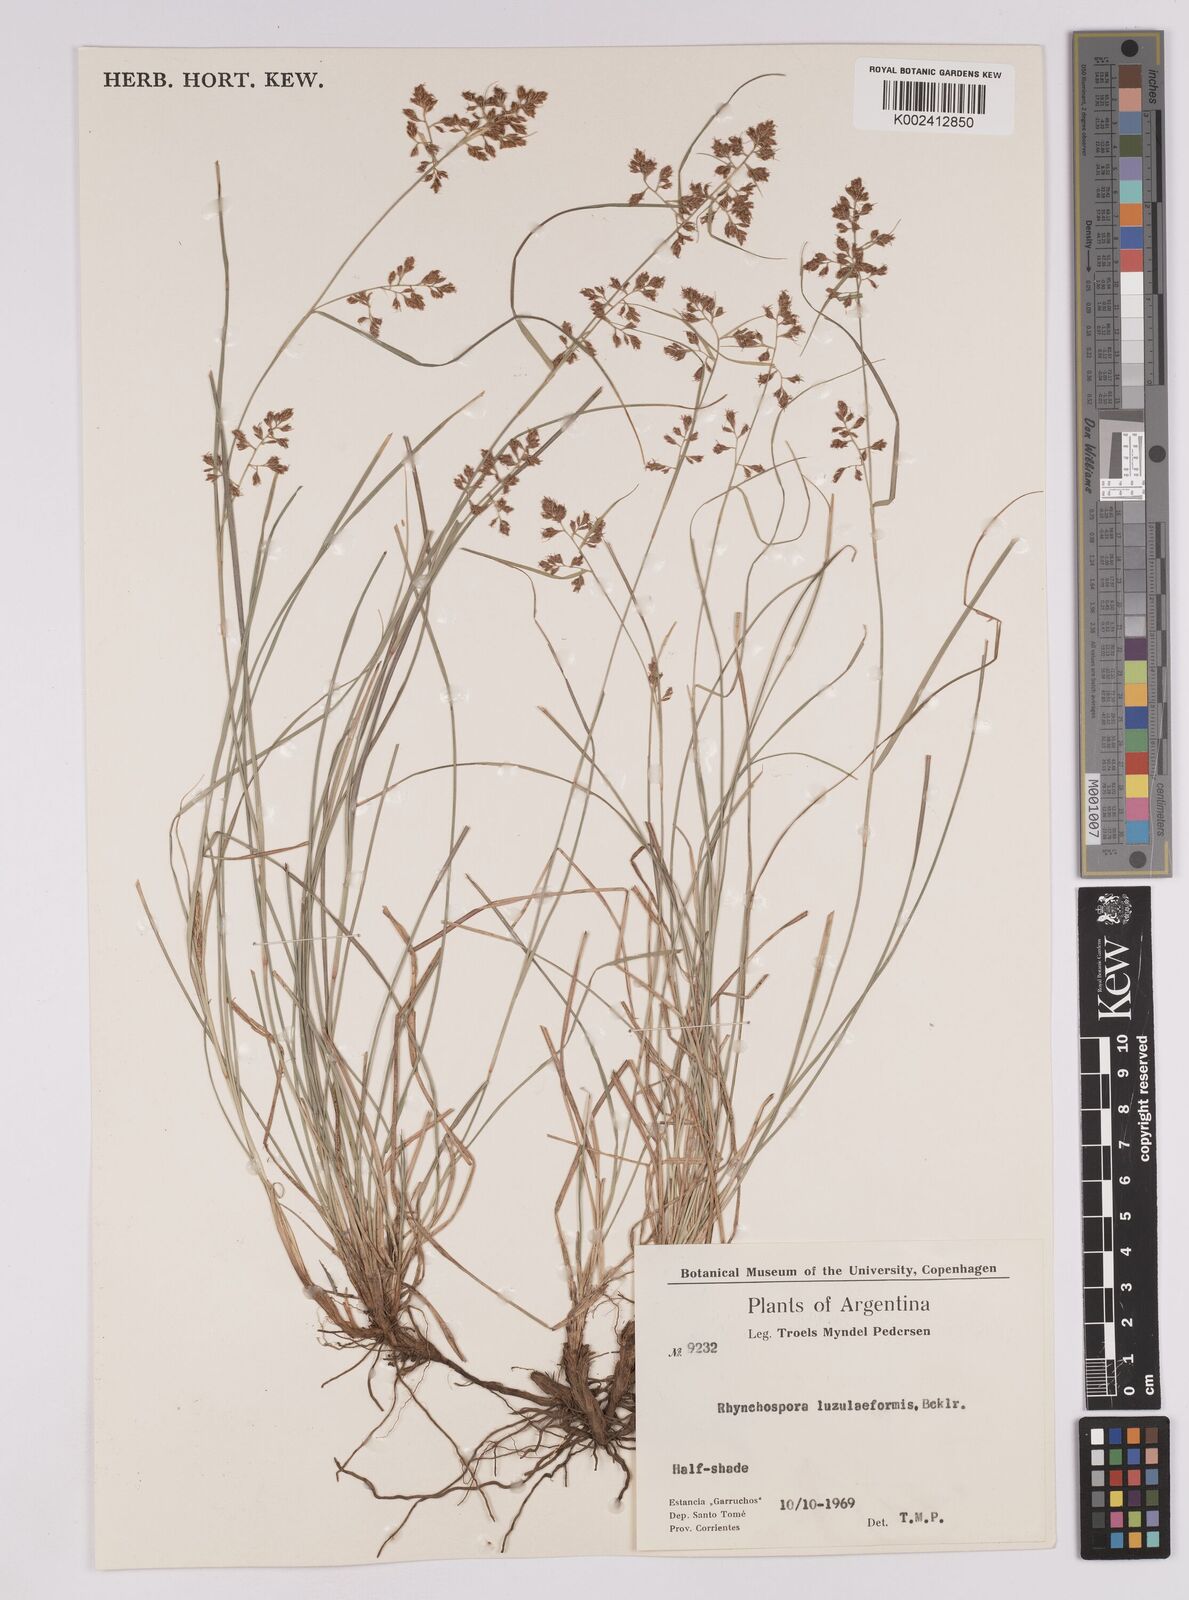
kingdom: Plantae
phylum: Tracheophyta
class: Liliopsida
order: Poales
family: Cyperaceae
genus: Rhynchospora
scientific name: Rhynchospora megapotamica
